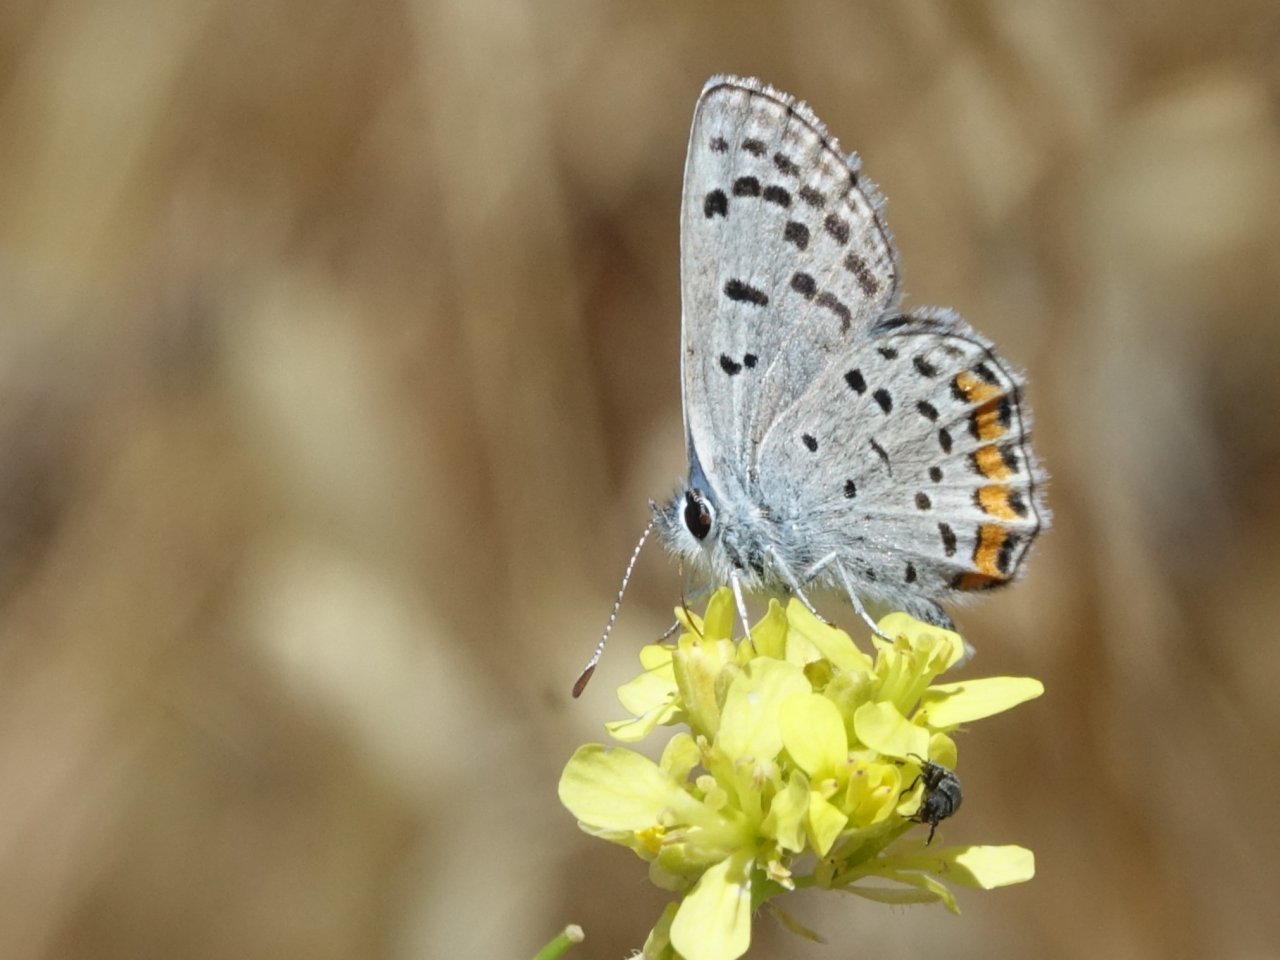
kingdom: Animalia
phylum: Arthropoda
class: Insecta
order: Lepidoptera
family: Lycaenidae
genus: Plebejus
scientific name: Plebejus acmon
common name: Acmon Blue
